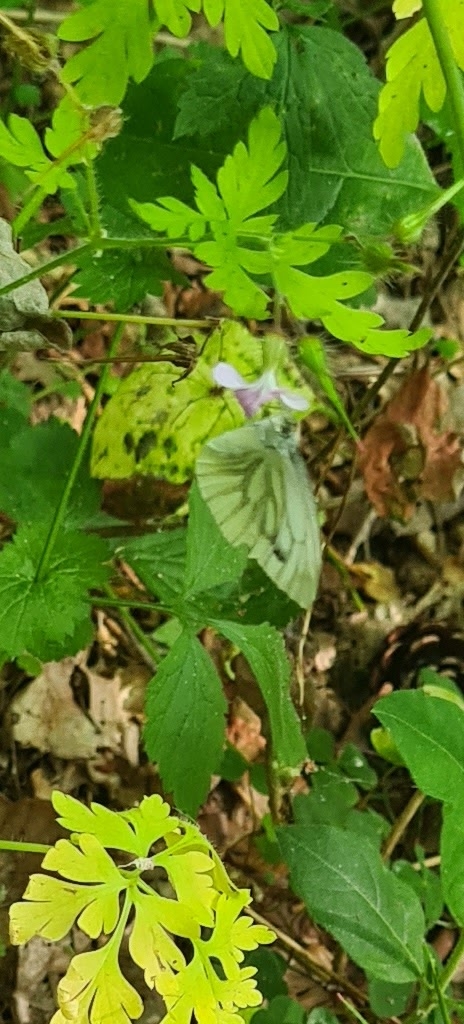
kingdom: Animalia
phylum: Arthropoda
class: Insecta
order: Lepidoptera
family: Pieridae
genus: Pieris
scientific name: Pieris napi
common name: Grønåret kålsommerfugl
